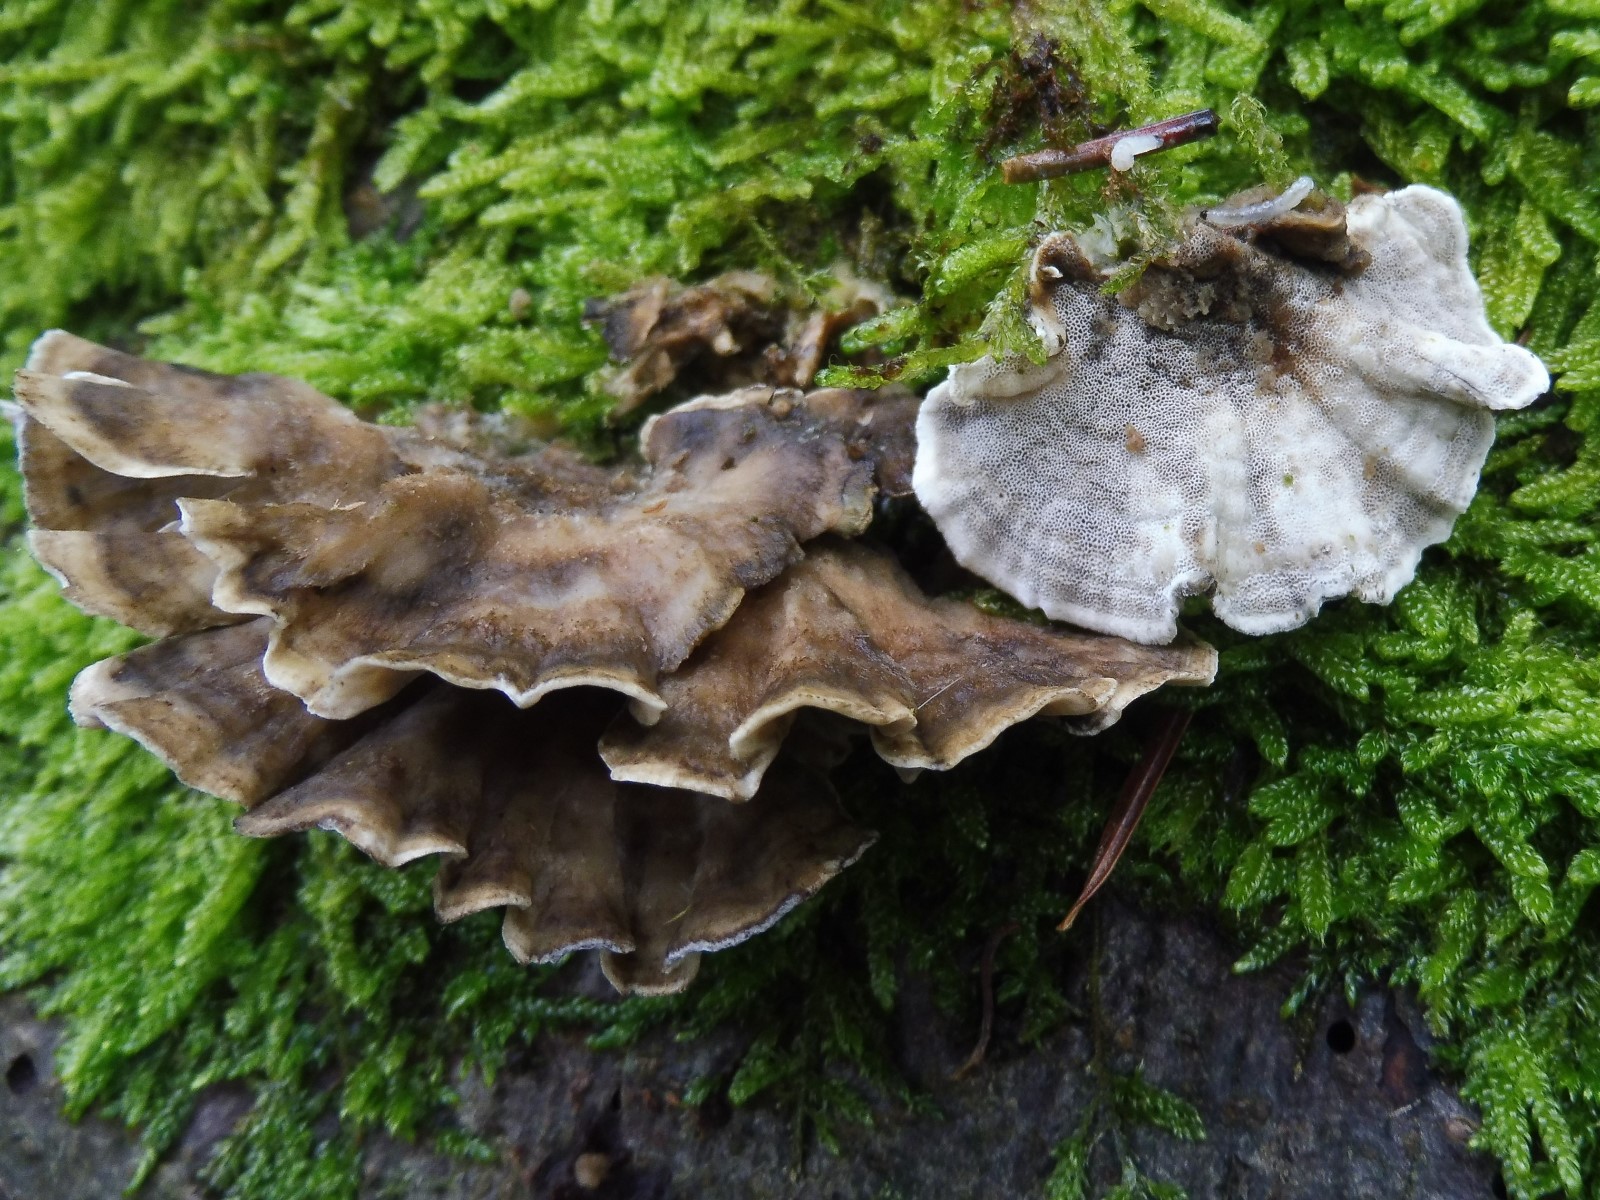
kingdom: Fungi
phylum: Basidiomycota
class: Agaricomycetes
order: Polyporales
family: Phanerochaetaceae
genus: Bjerkandera
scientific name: Bjerkandera adusta
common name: sveden sodporesvamp
